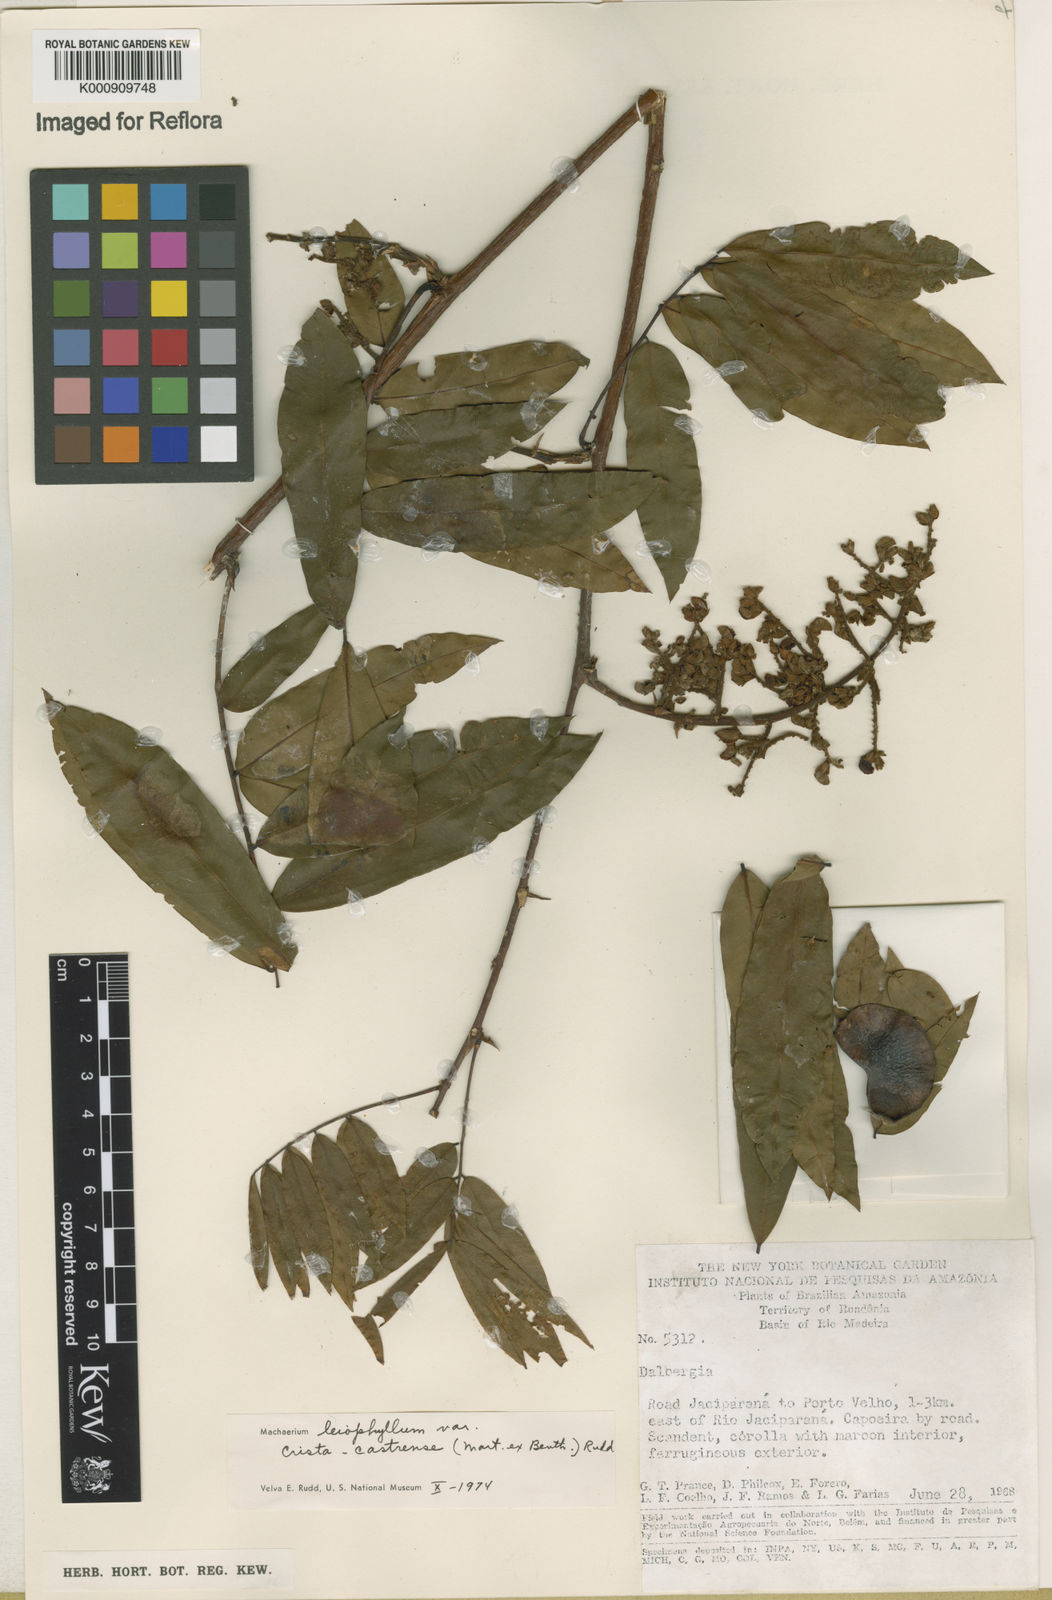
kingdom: Plantae
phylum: Tracheophyta
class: Magnoliopsida
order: Fabales
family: Fabaceae
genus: Machaerium
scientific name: Machaerium leiophyllum
